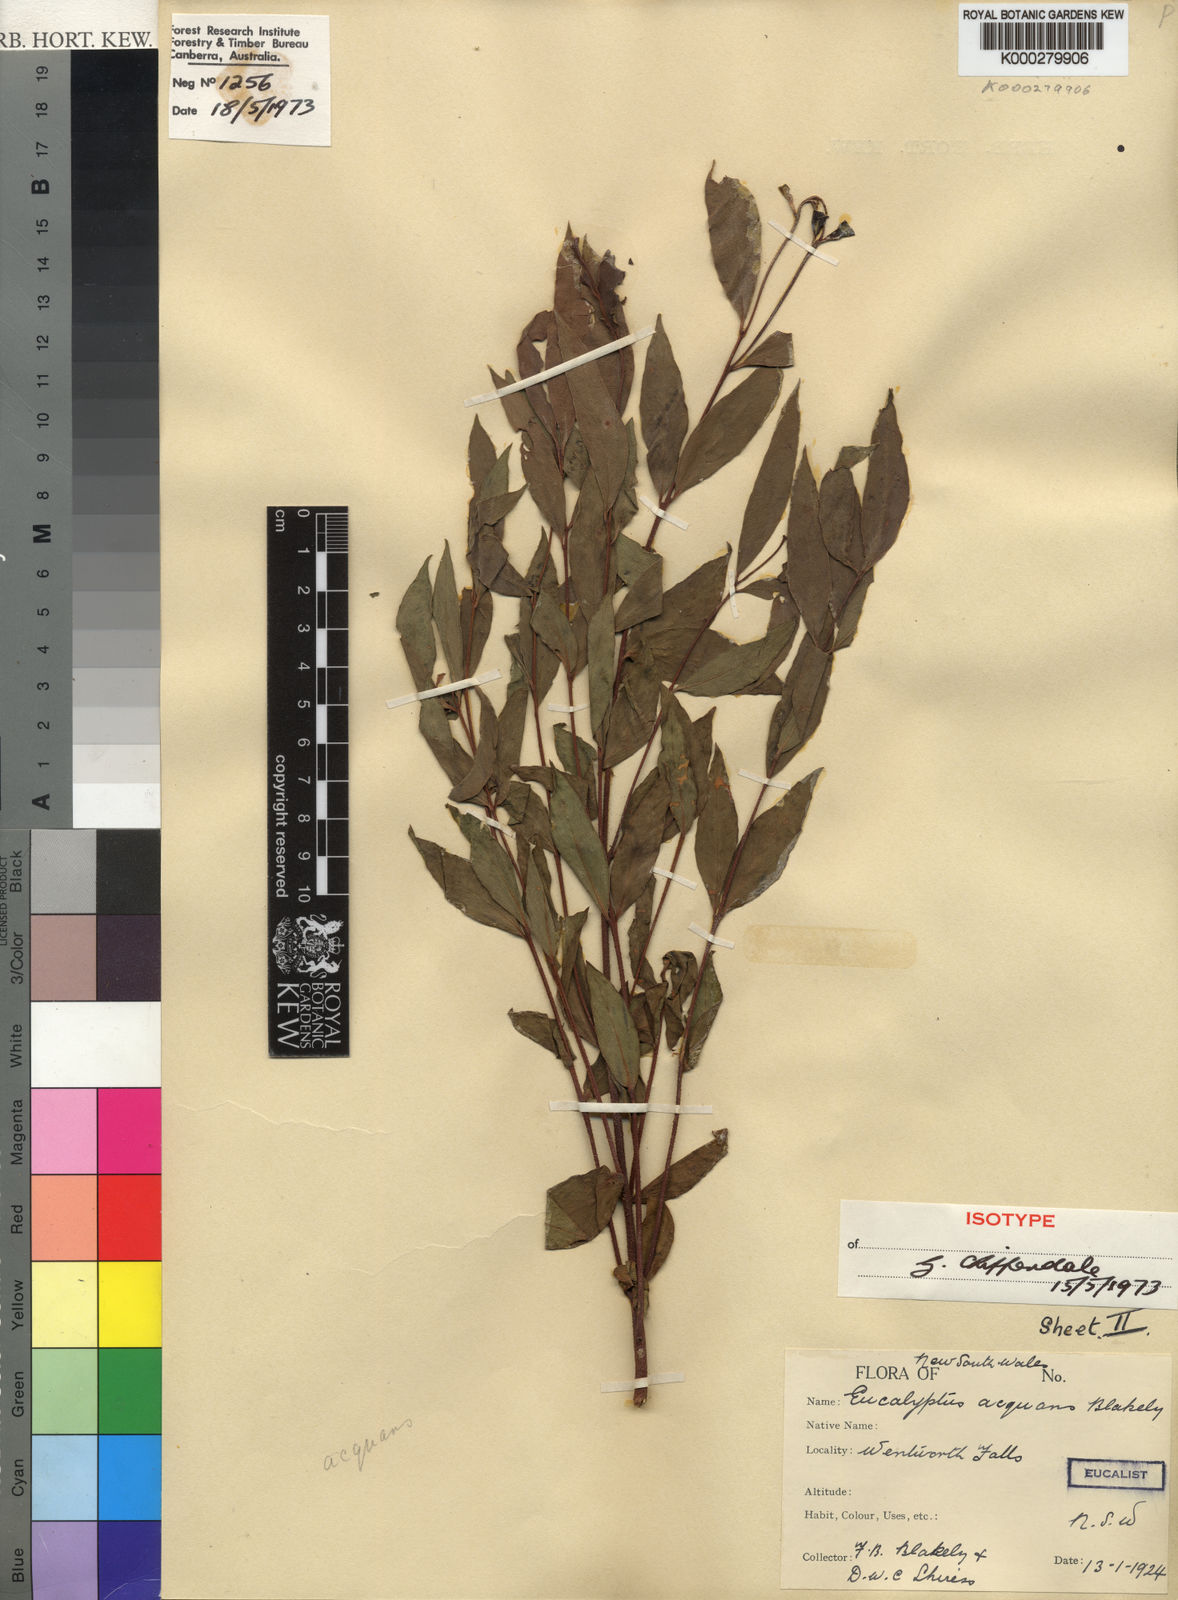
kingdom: Plantae
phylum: Tracheophyta
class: Magnoliopsida
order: Myrtales
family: Myrtaceae
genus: Eucalyptus
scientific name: Eucalyptus aequans
